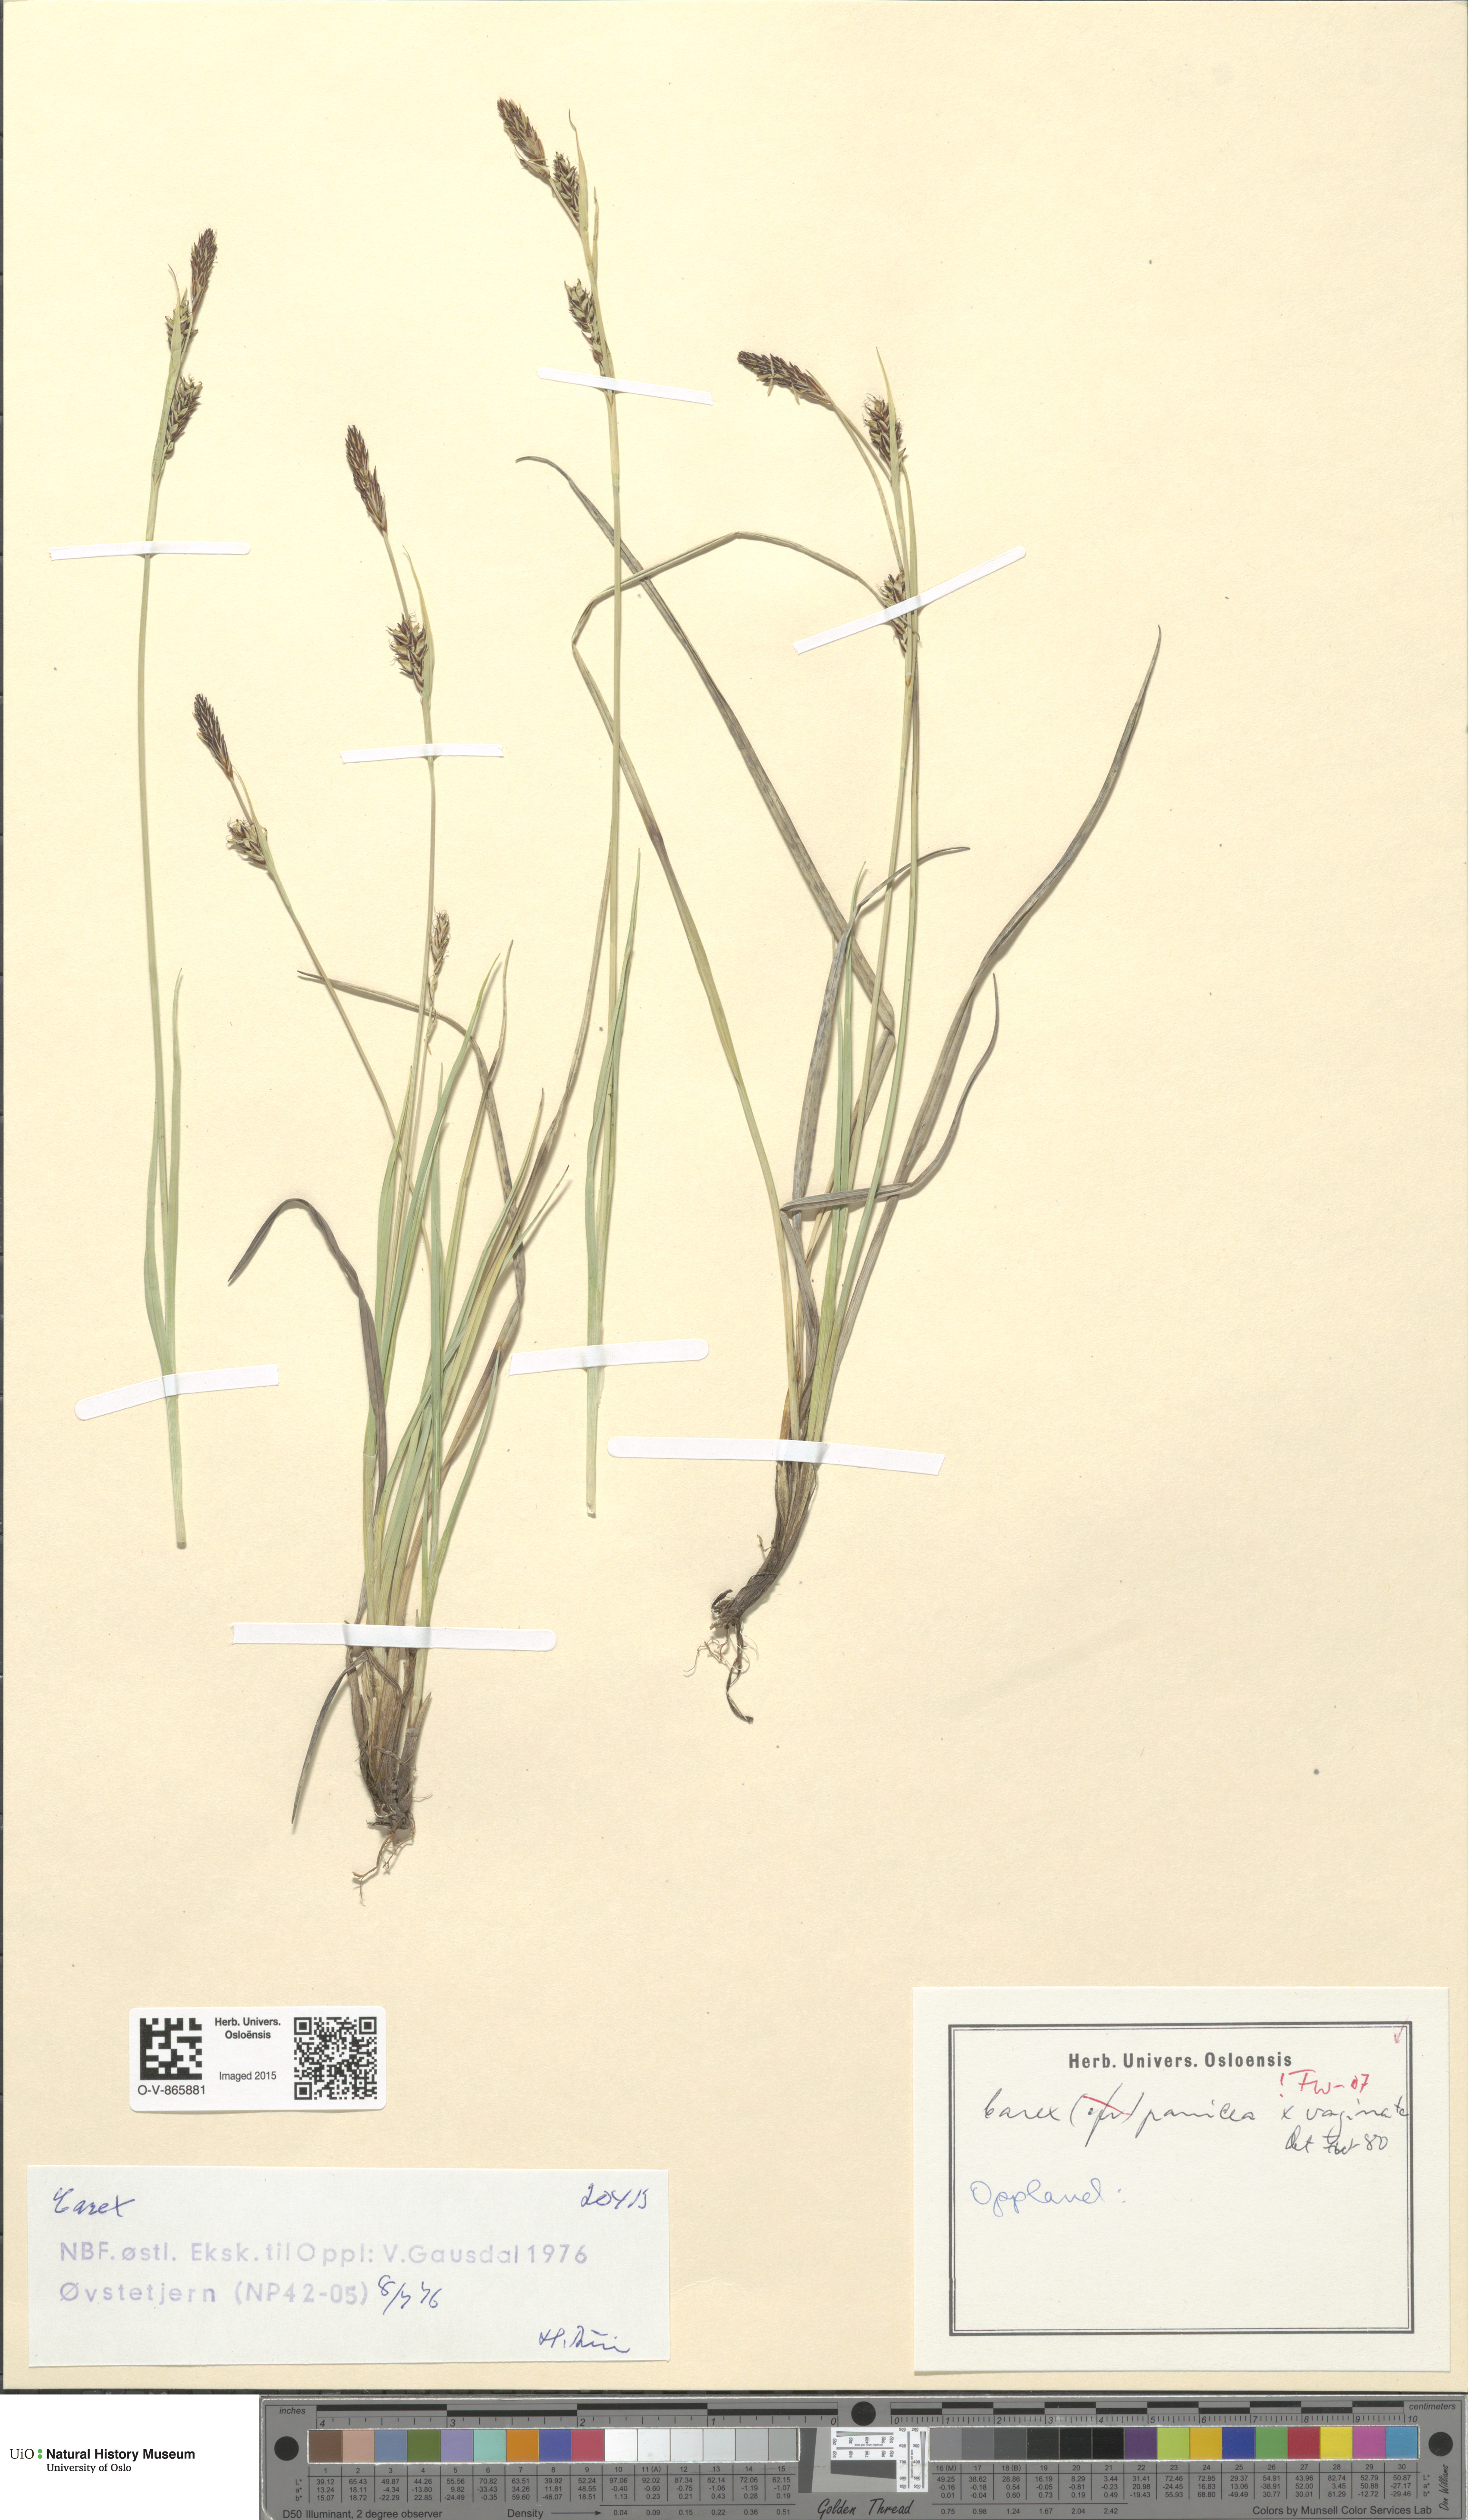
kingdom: Plantae
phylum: Tracheophyta
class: Liliopsida
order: Poales
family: Cyperaceae
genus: Carex
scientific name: Carex
